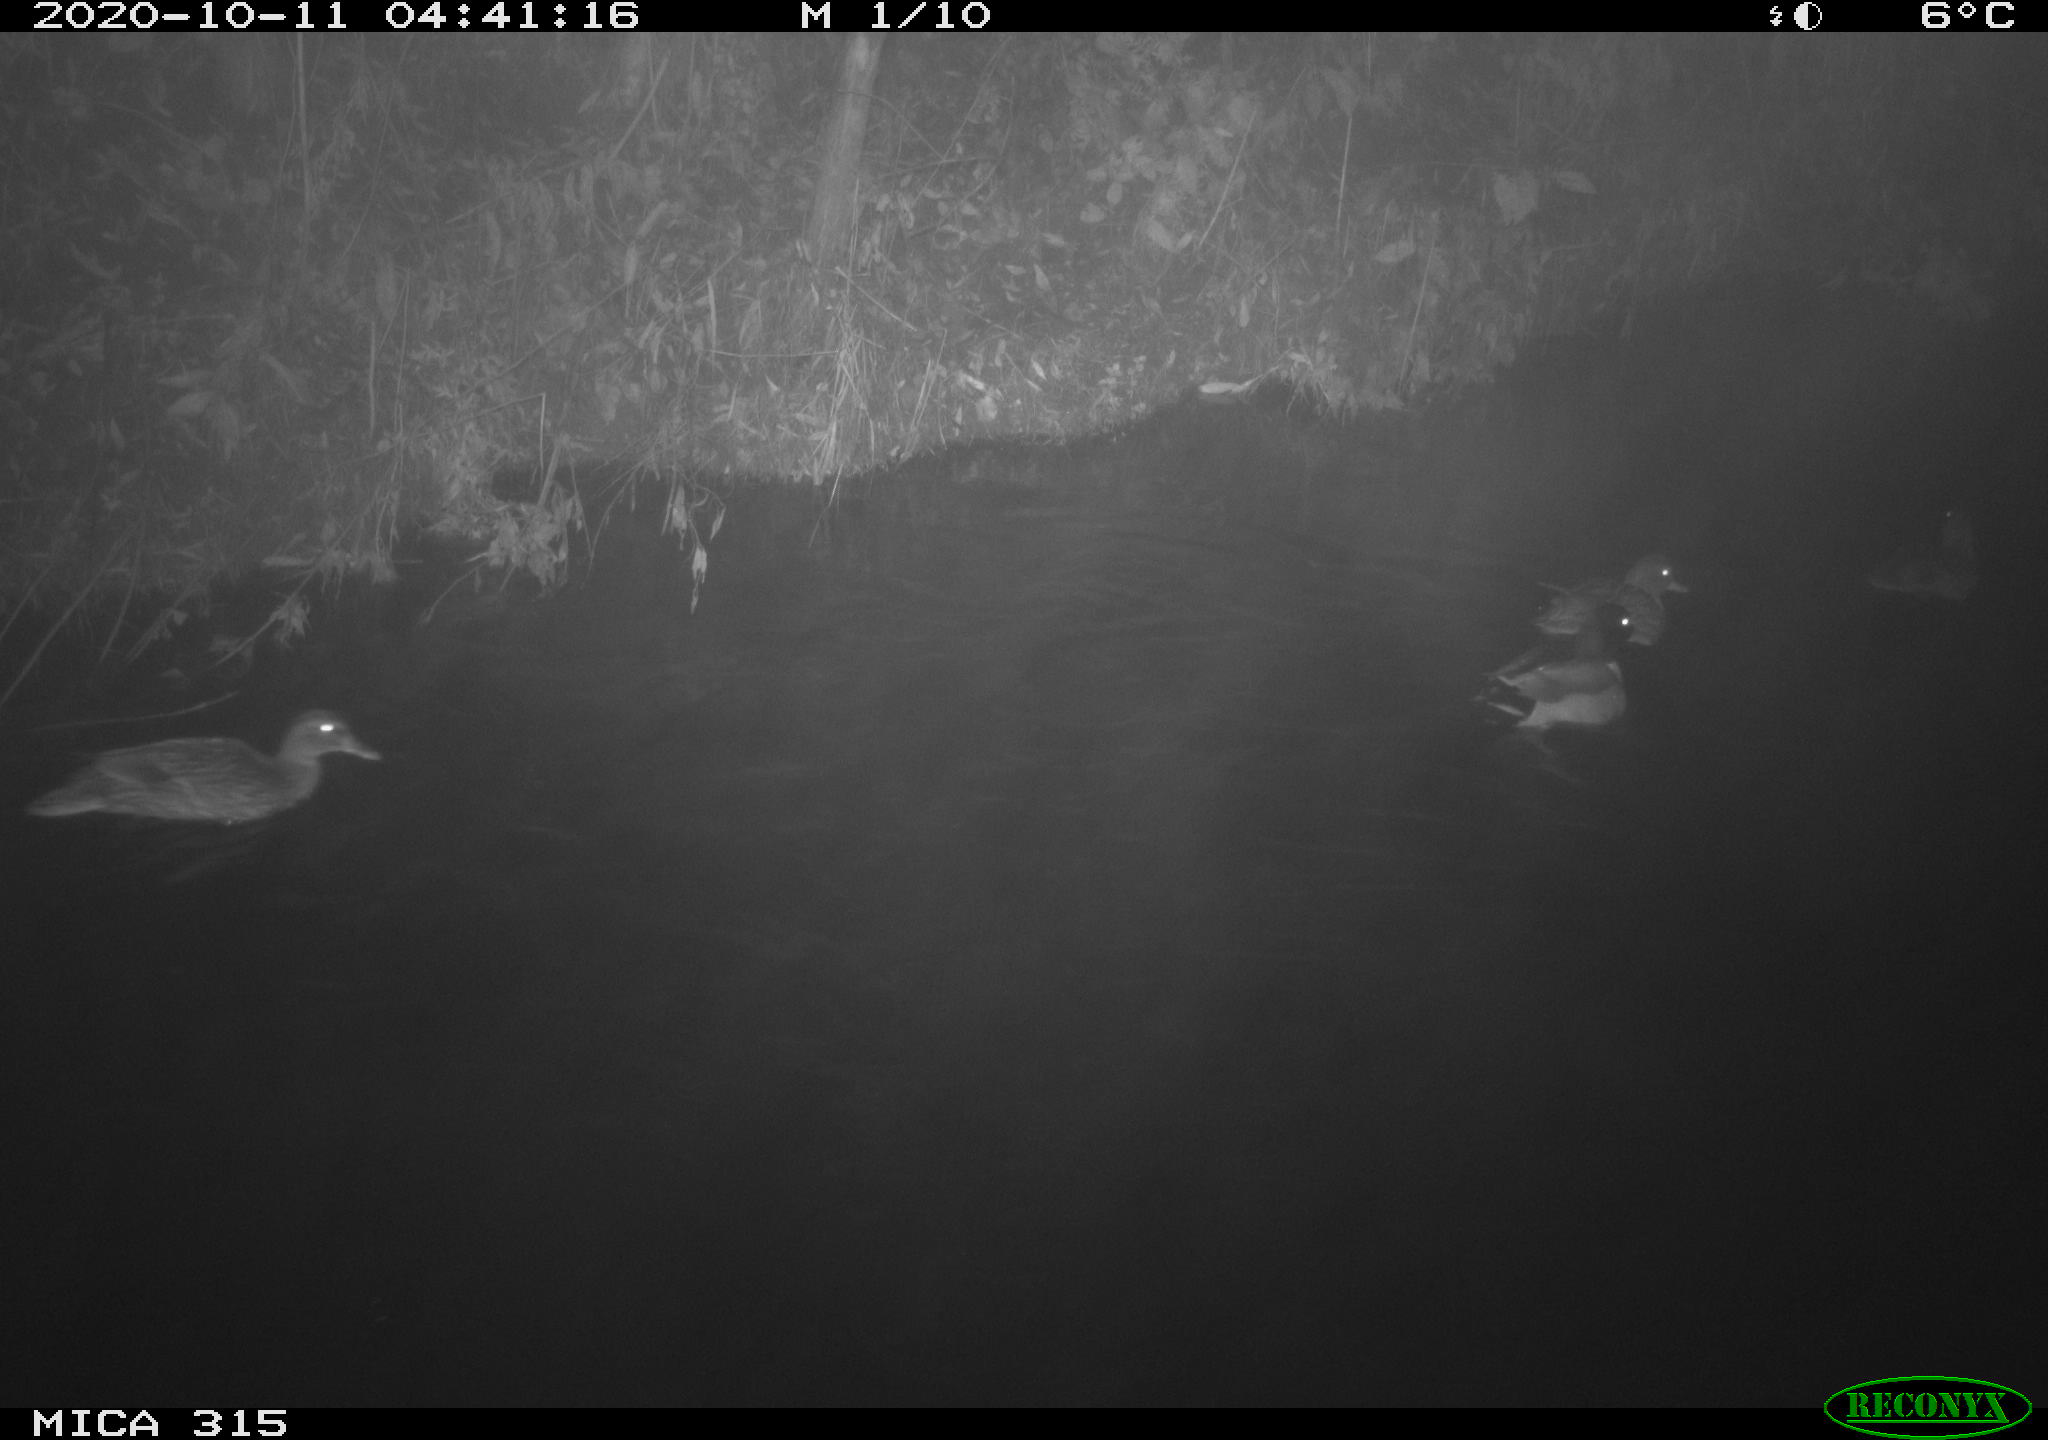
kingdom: Animalia
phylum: Chordata
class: Aves
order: Anseriformes
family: Anatidae
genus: Anas
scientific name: Anas platyrhynchos
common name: Mallard
